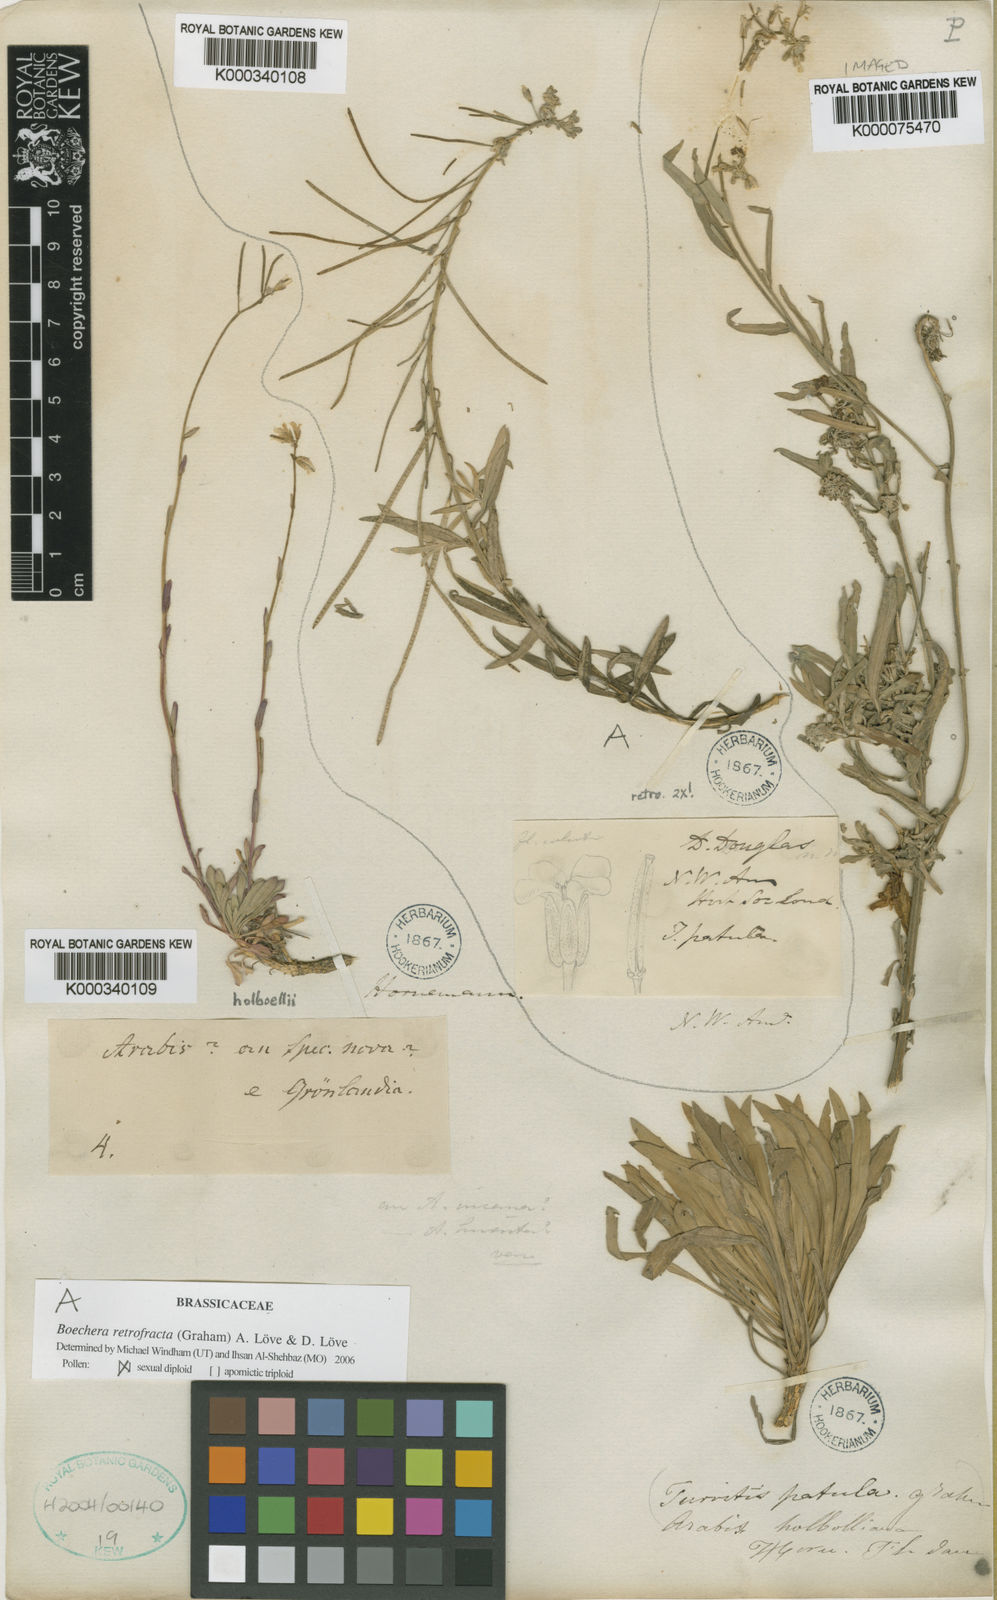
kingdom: Plantae
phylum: Tracheophyta
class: Magnoliopsida
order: Brassicales
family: Brassicaceae
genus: Boechera
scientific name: Boechera fendleri
